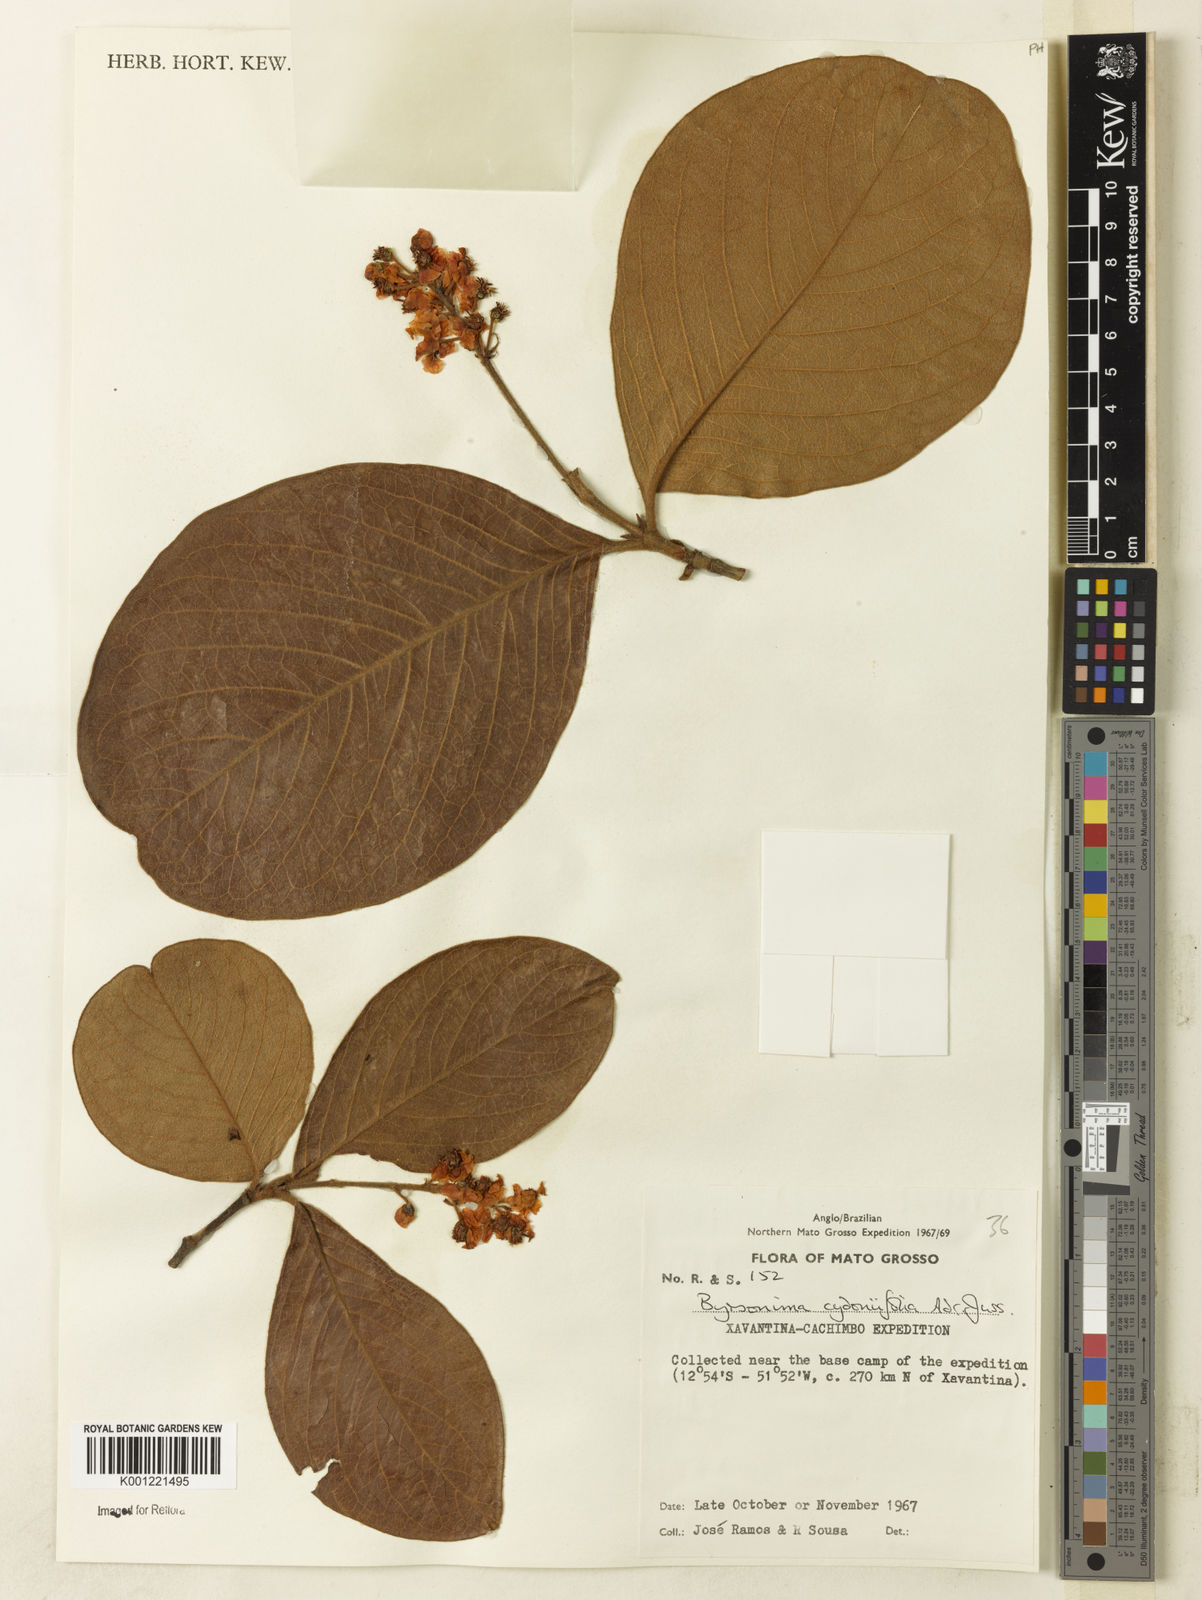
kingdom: Plantae
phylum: Tracheophyta
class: Magnoliopsida
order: Malpighiales
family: Malpighiaceae
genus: Byrsonima
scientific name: Byrsonima cydoniifolia
